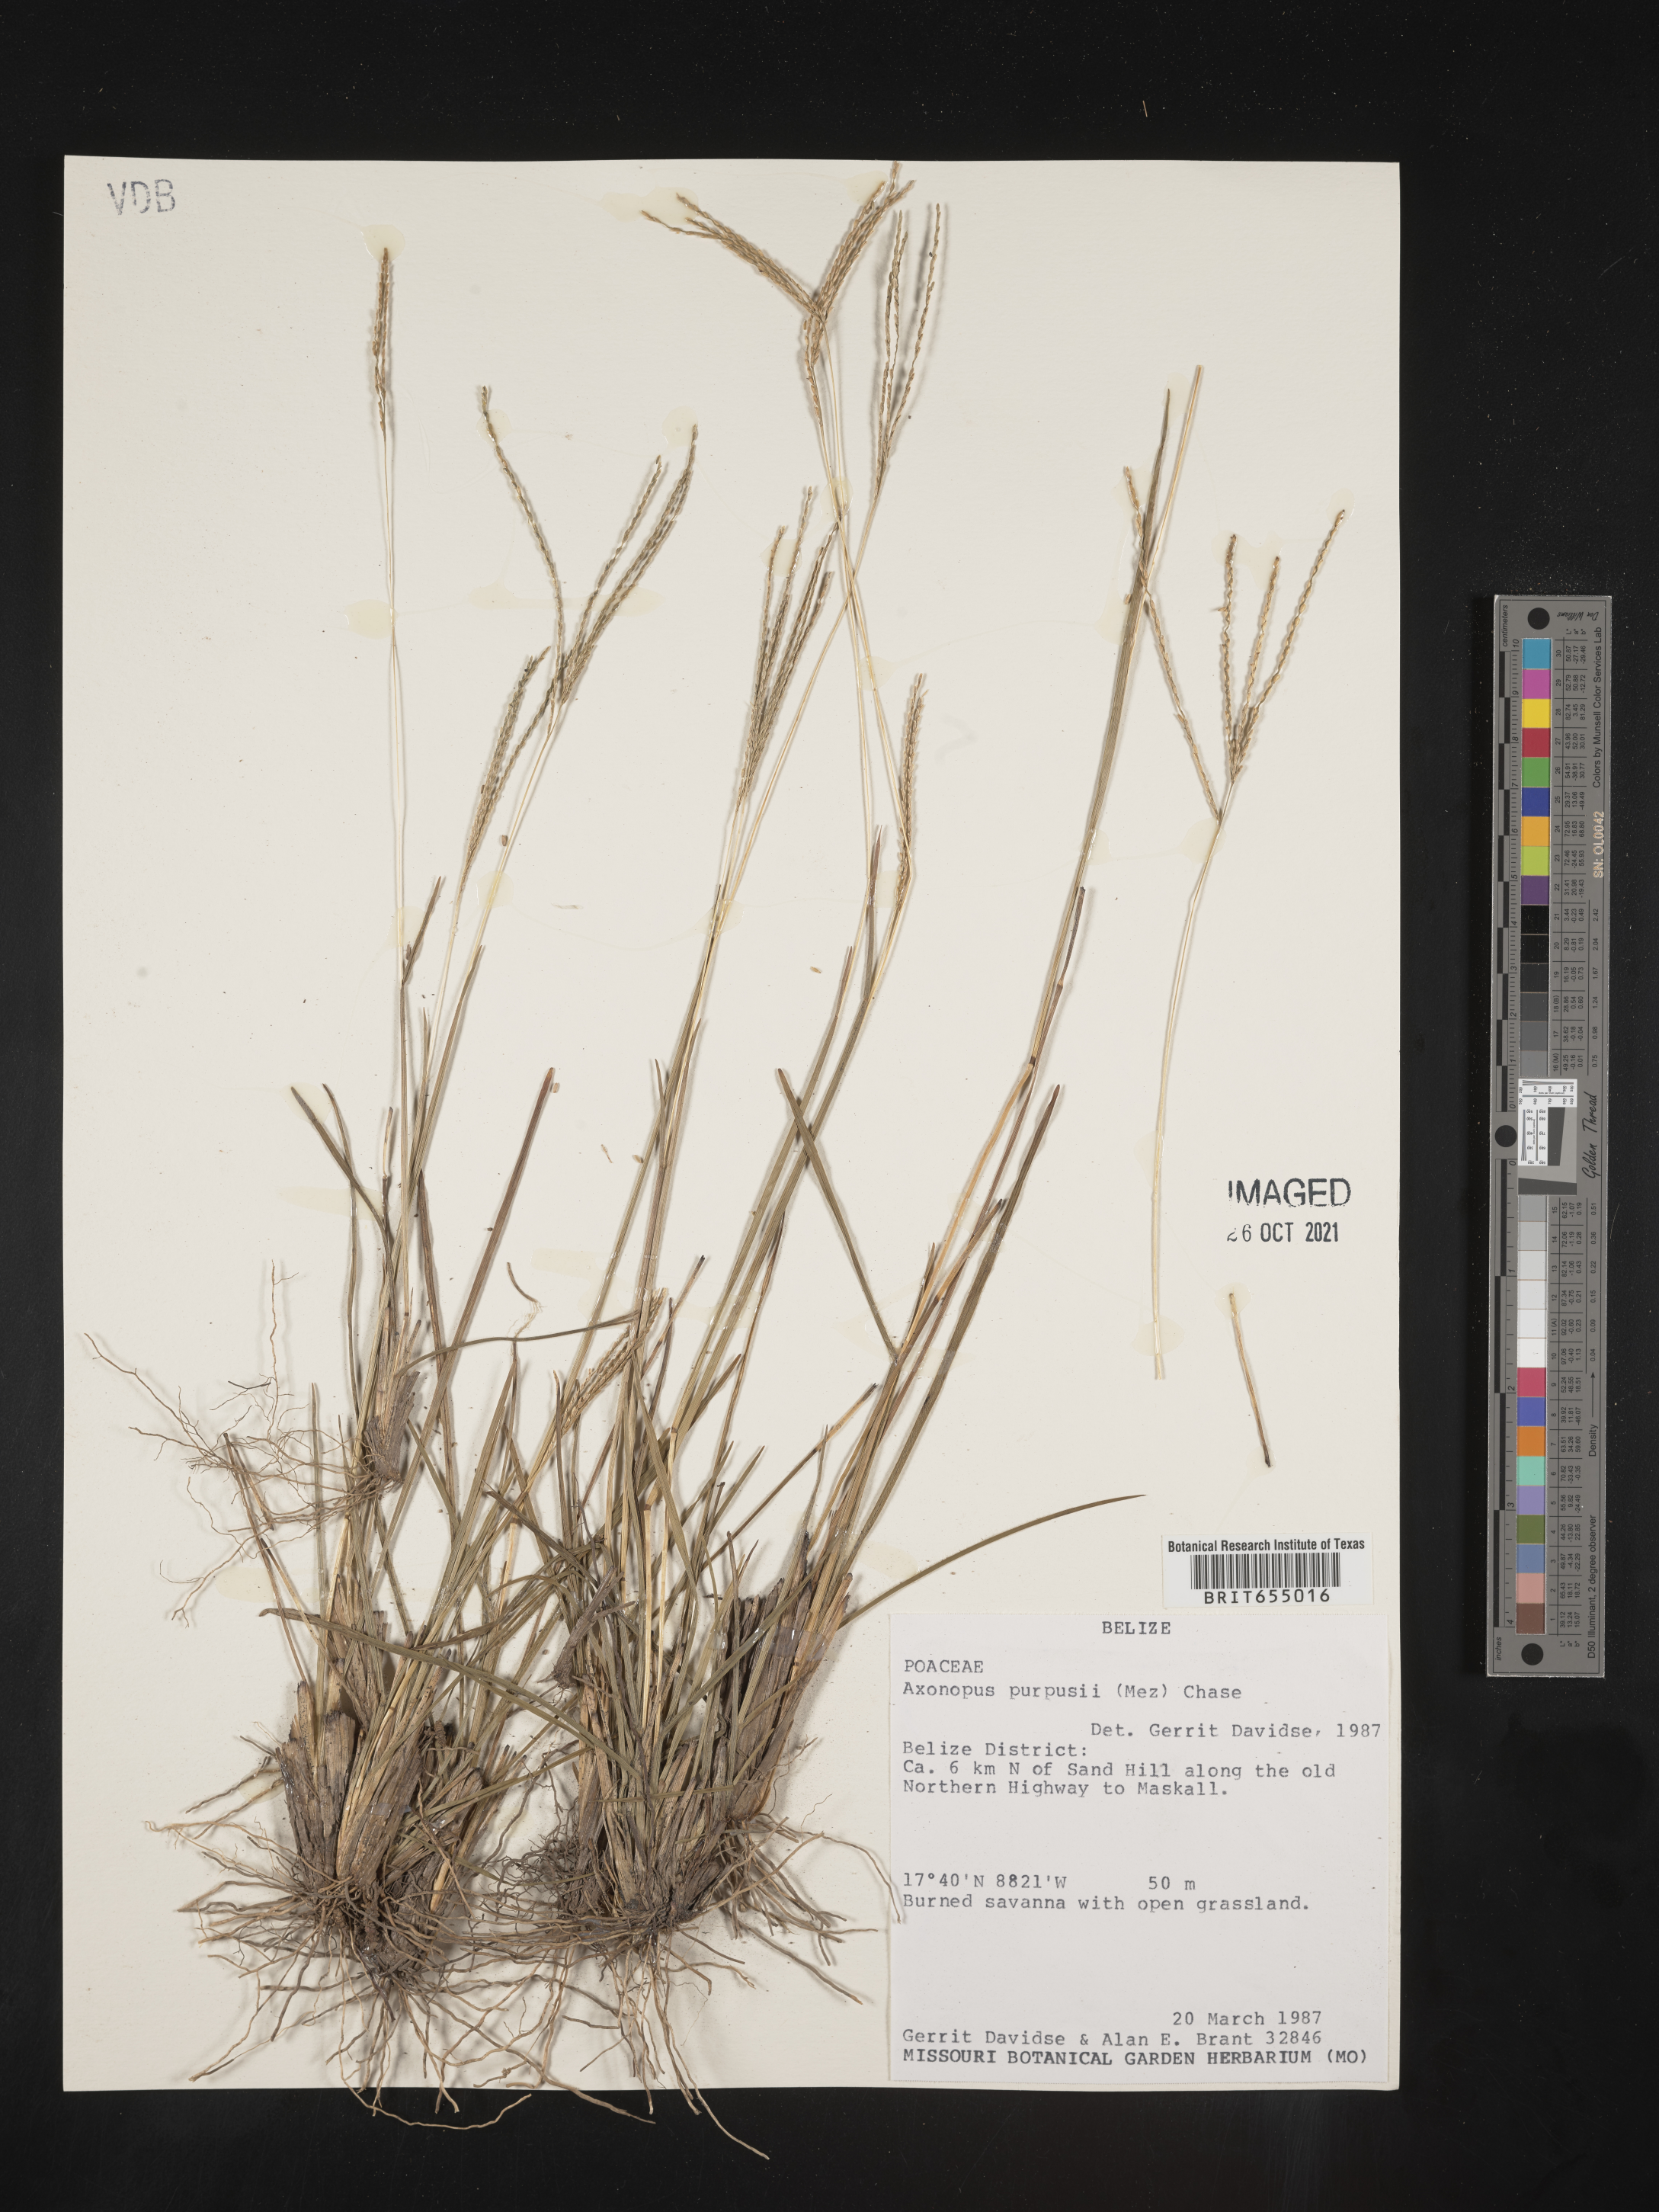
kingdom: Plantae
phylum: Tracheophyta
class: Liliopsida
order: Poales
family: Poaceae
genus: Axonopus
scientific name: Axonopus
